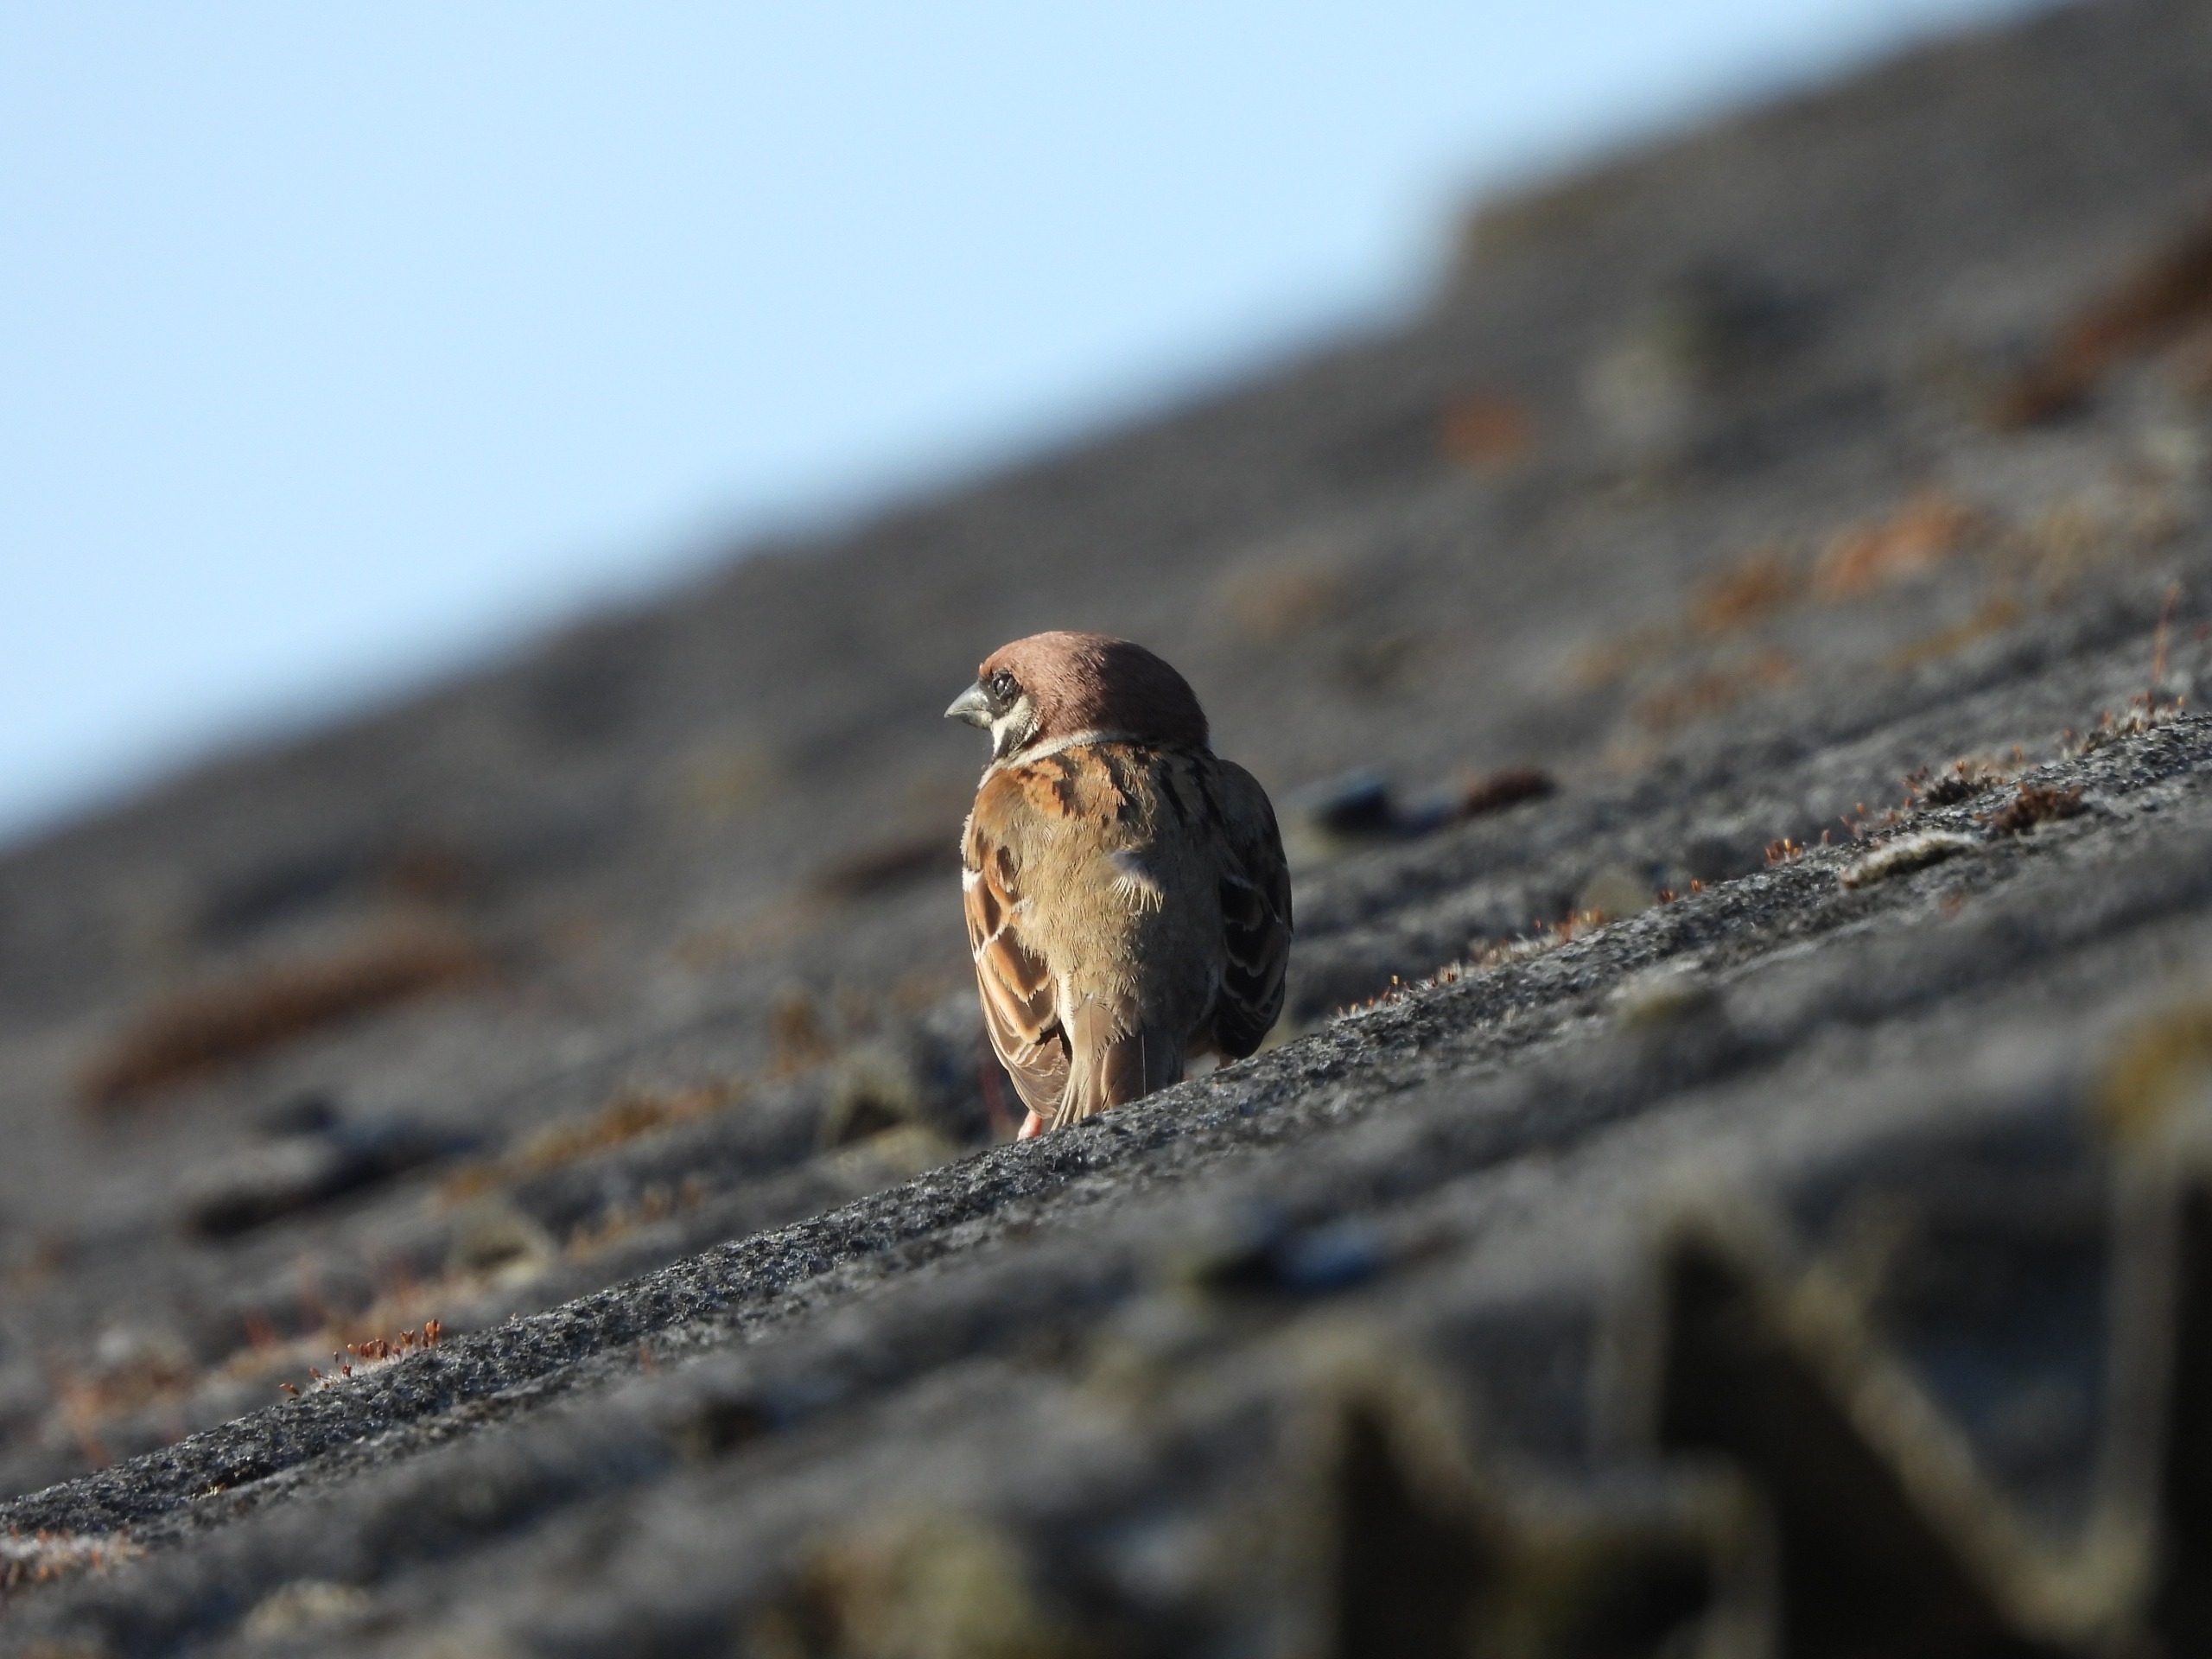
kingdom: Animalia
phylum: Chordata
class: Aves
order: Passeriformes
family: Passeridae
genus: Passer
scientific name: Passer montanus
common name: Skovspurv
